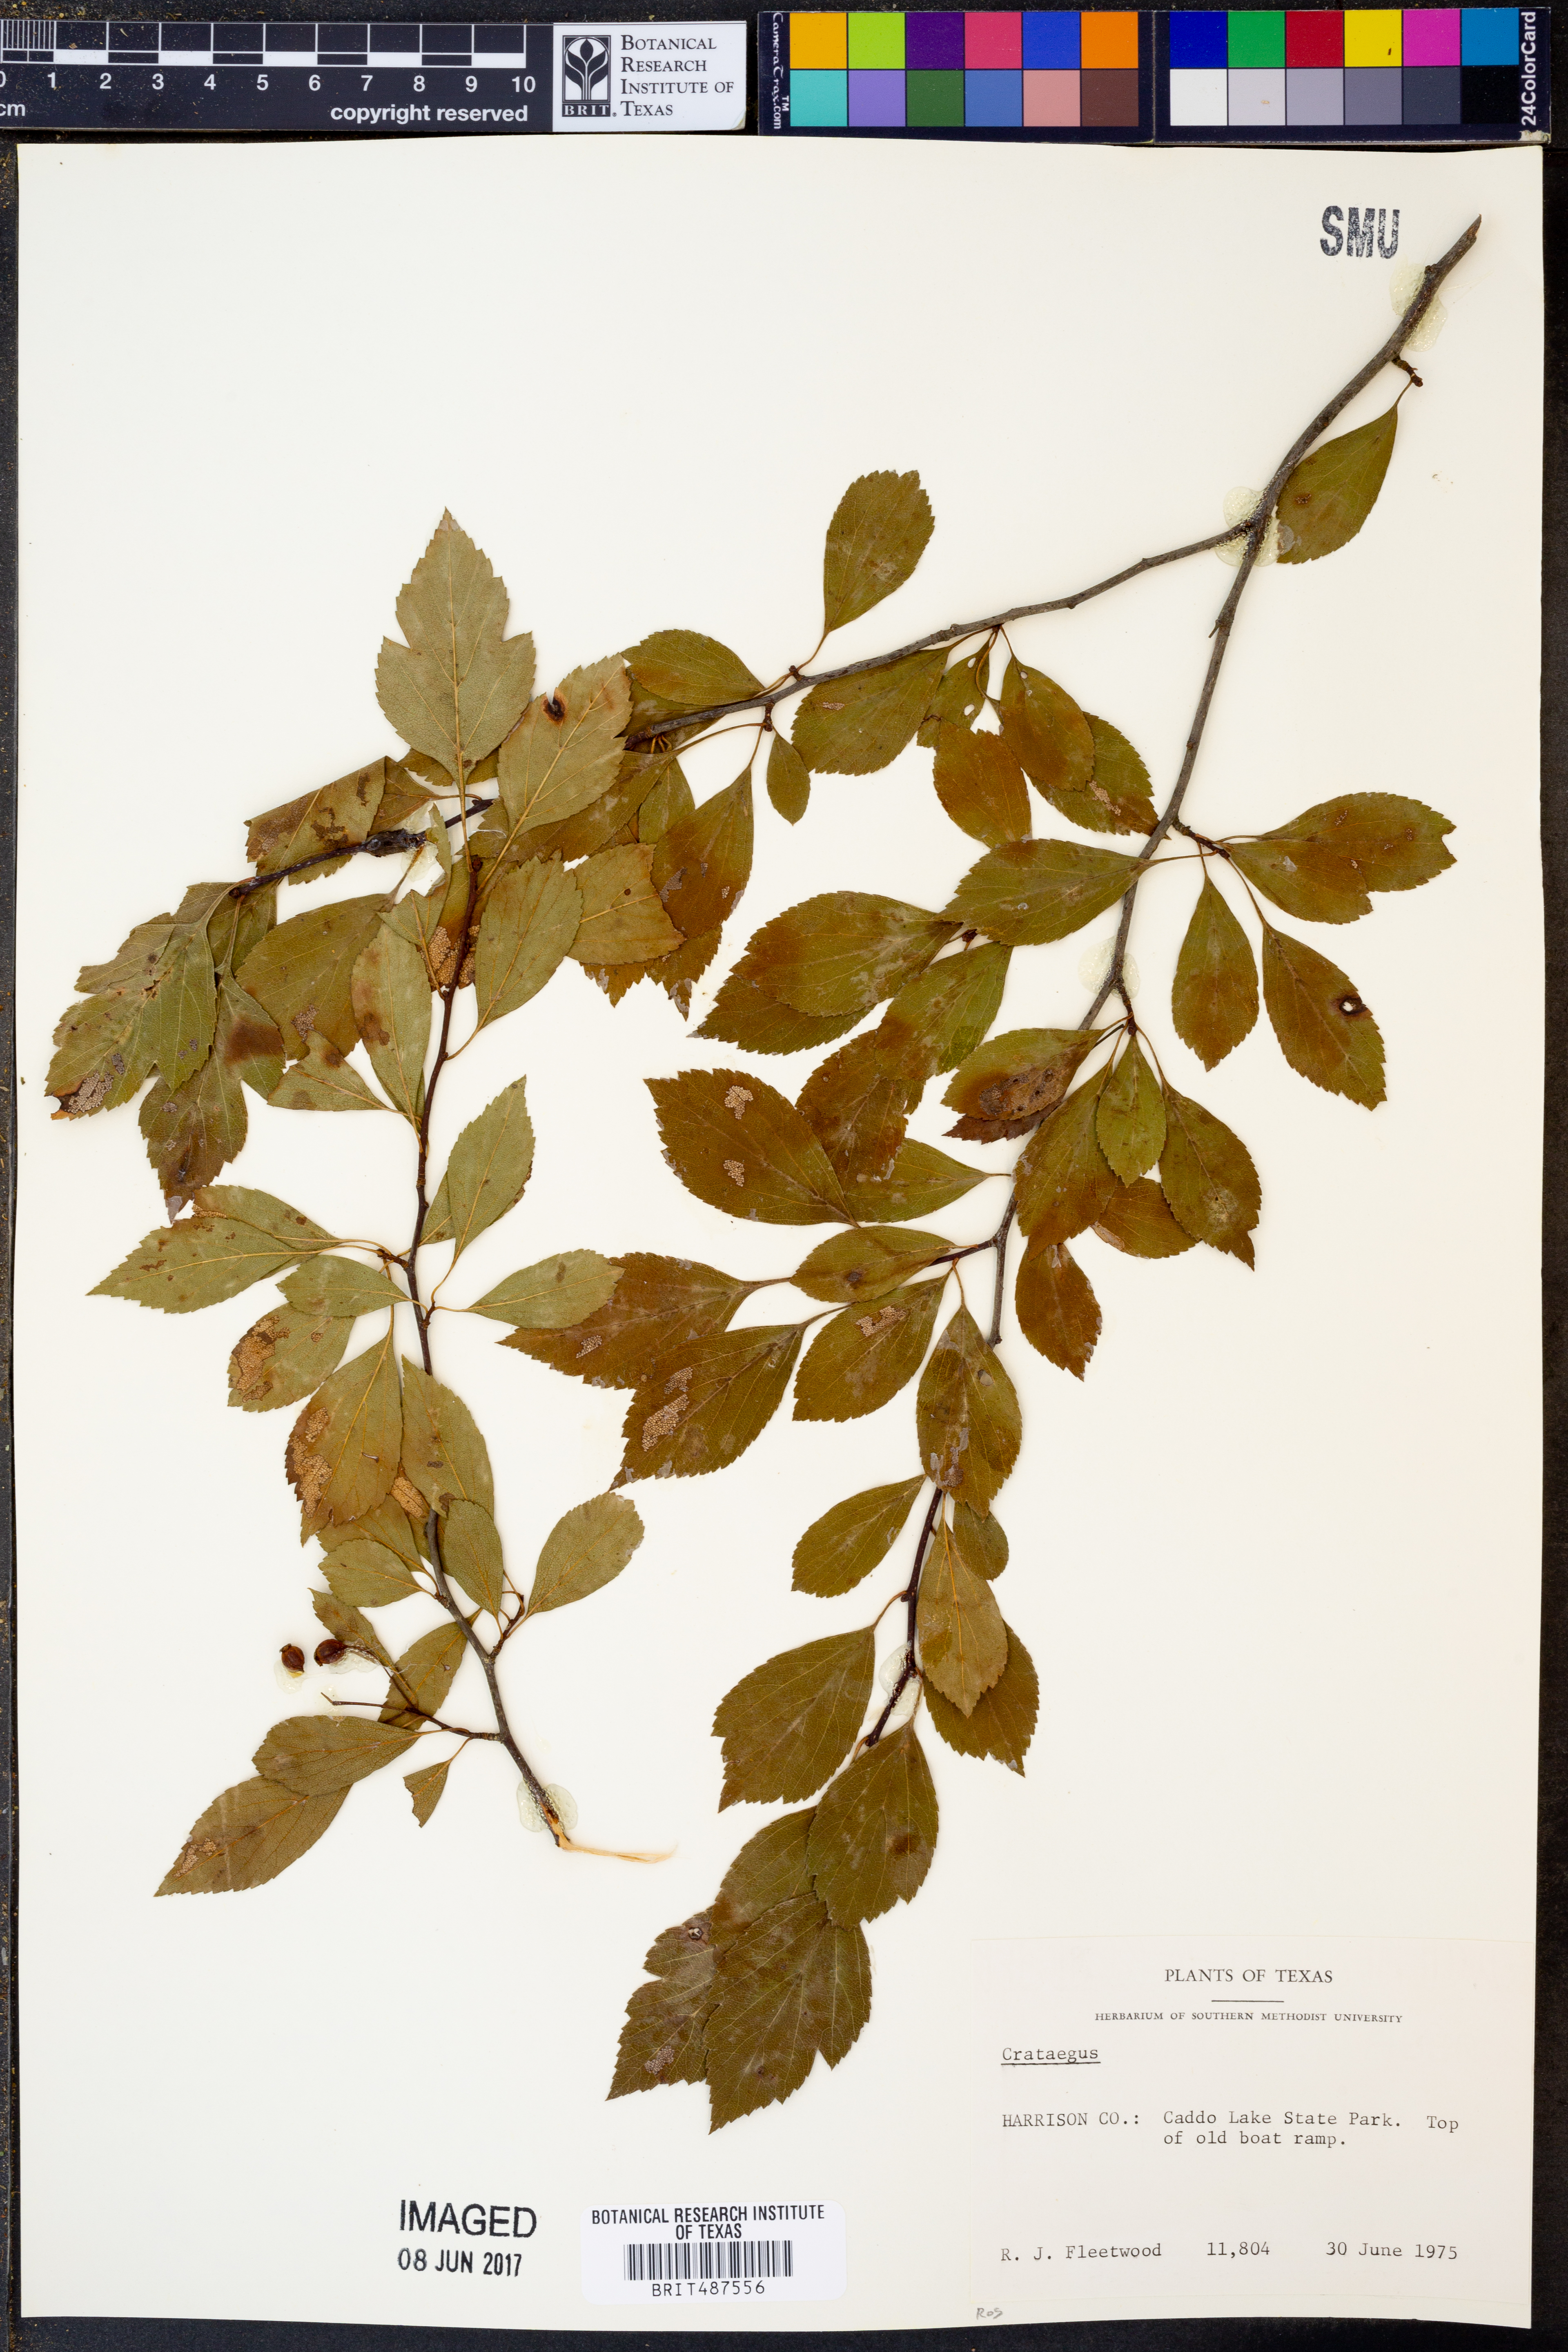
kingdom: Plantae
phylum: Tracheophyta
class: Magnoliopsida
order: Rosales
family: Rosaceae
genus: Crataegus
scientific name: Crataegus
